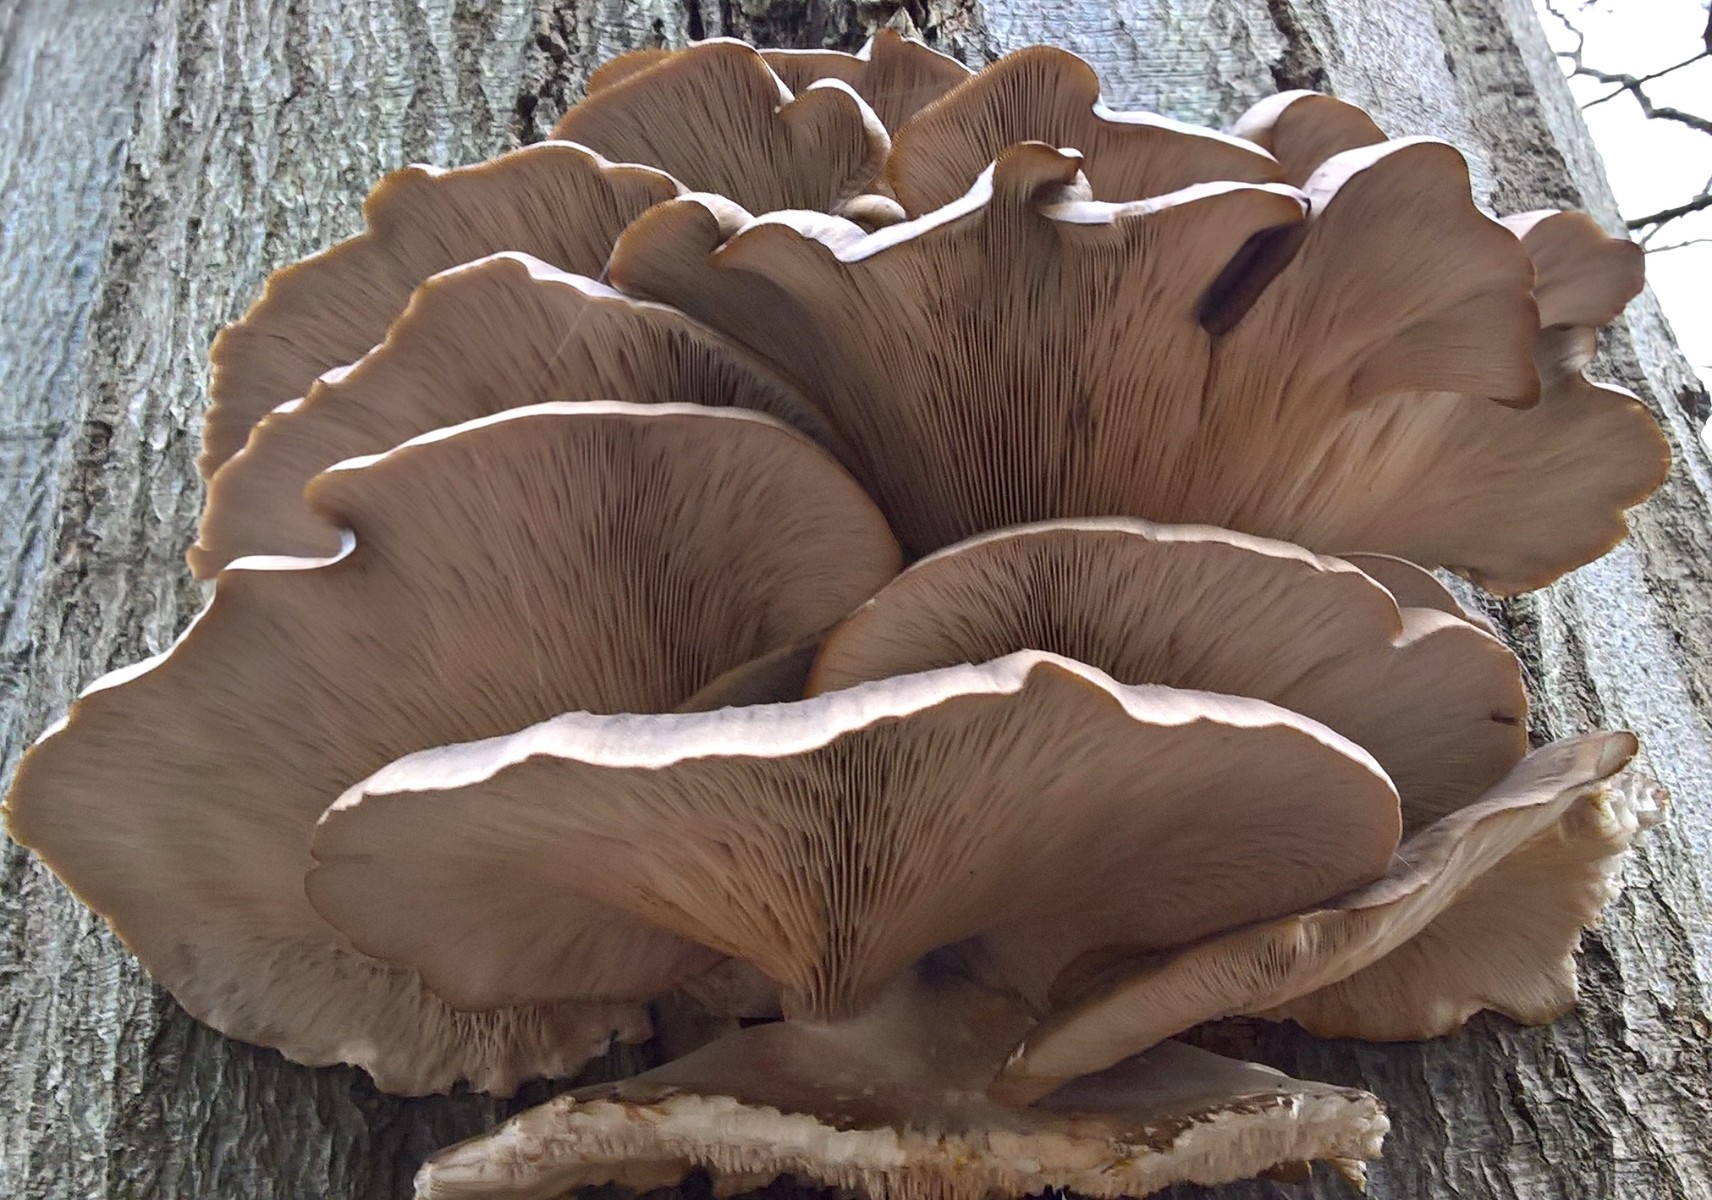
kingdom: Fungi
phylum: Basidiomycota
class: Agaricomycetes
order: Agaricales
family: Pleurotaceae
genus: Pleurotus
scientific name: Pleurotus ostreatus
